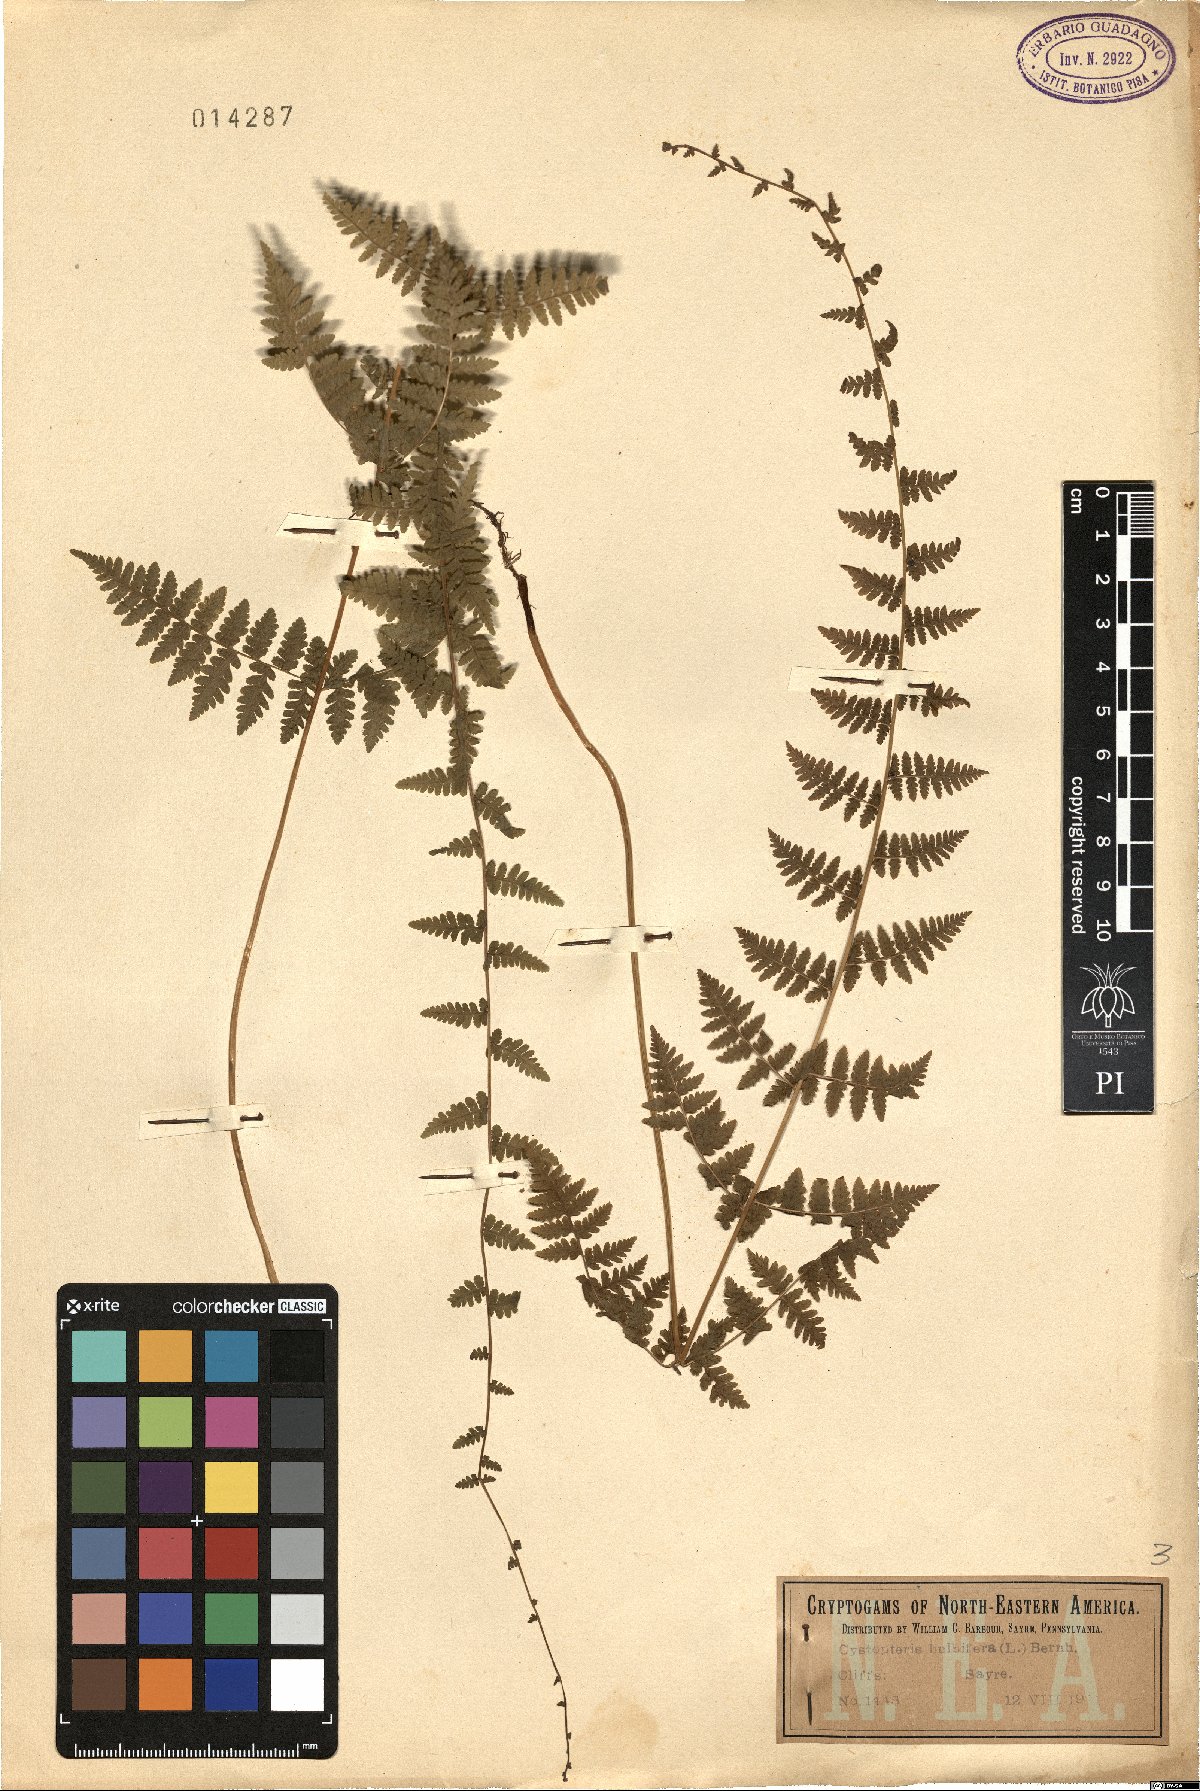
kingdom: Plantae
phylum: Tracheophyta
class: Polypodiopsida
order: Polypodiales
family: Cystopteridaceae
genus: Cystopteris
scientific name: Cystopteris bulbifera
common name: Bulblet bladder fern
